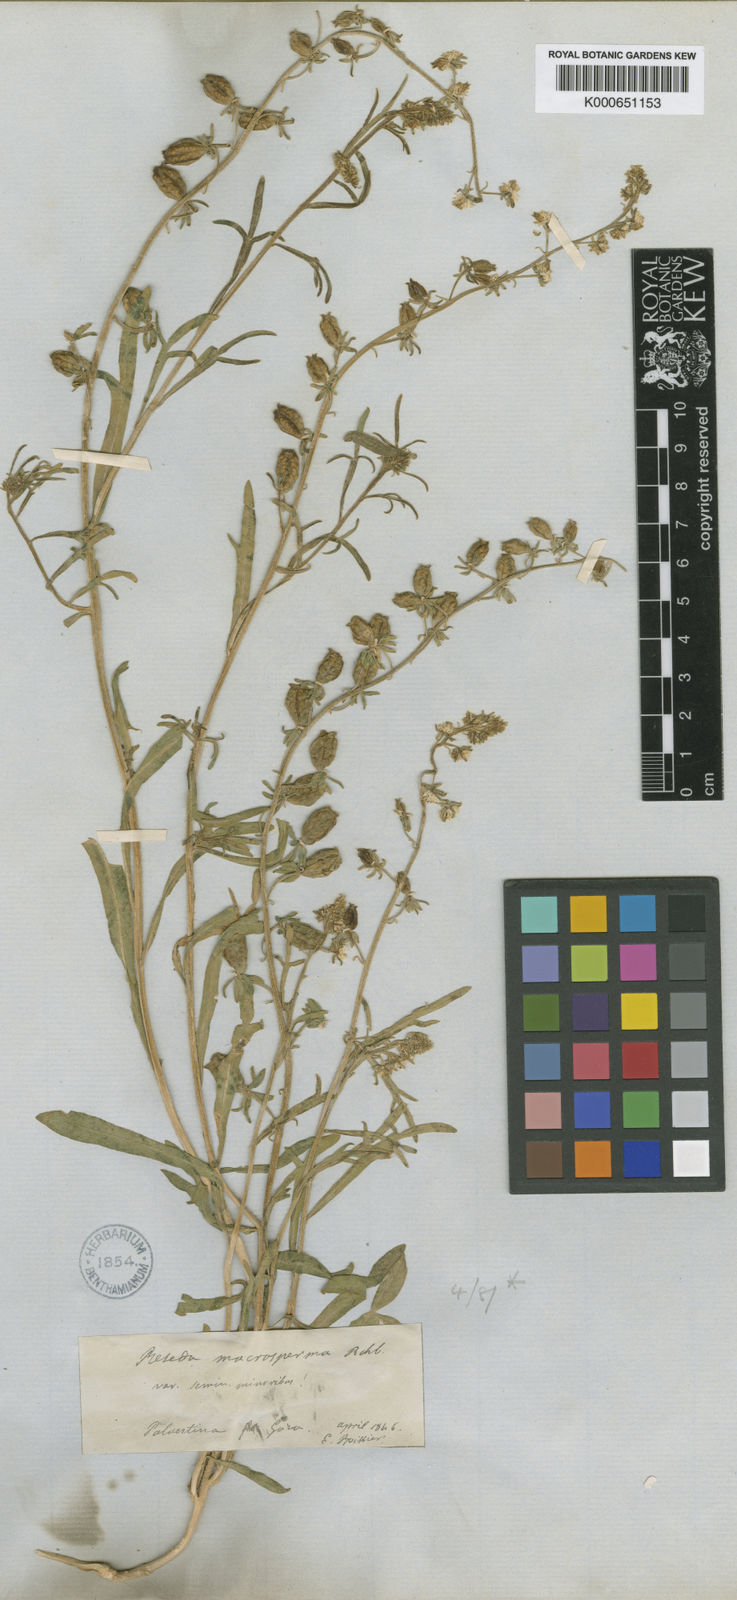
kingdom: Plantae
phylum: Tracheophyta
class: Magnoliopsida
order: Brassicales
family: Resedaceae
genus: Reseda
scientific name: Reseda orientalis
